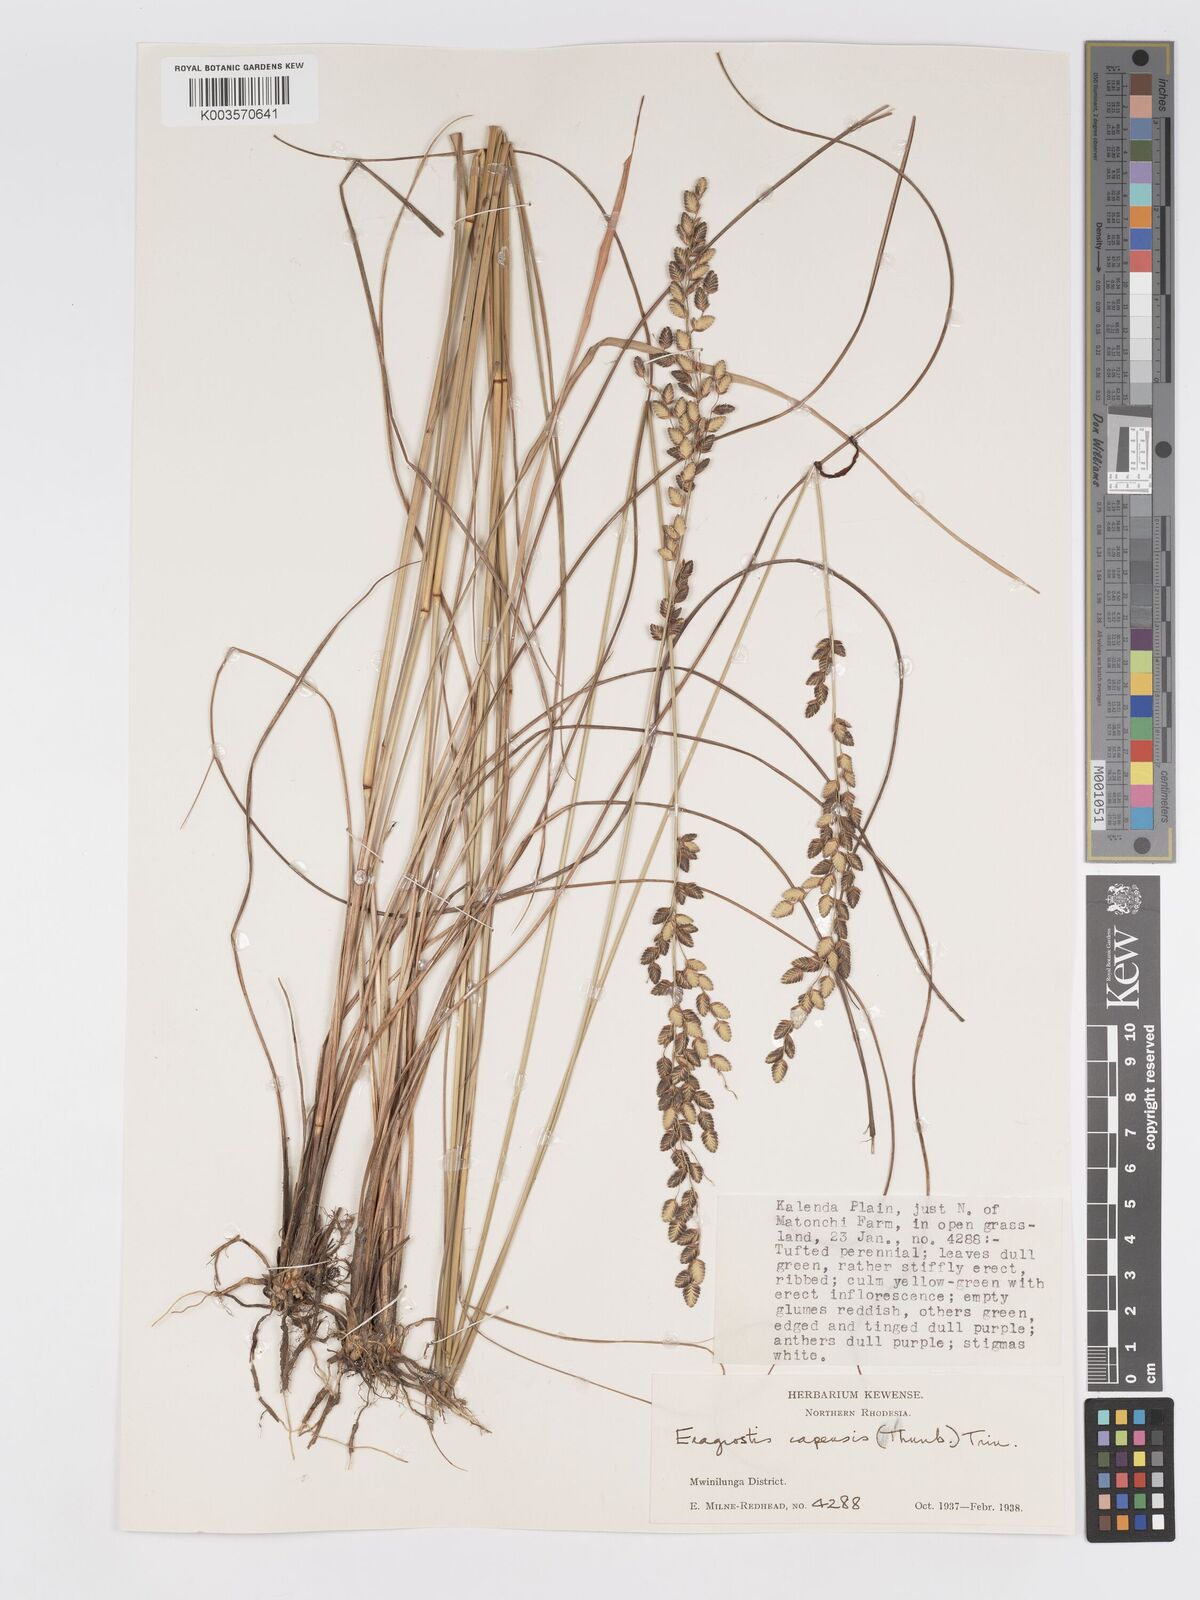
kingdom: Plantae
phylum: Tracheophyta
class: Liliopsida
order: Poales
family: Poaceae
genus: Eragrostis
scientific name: Eragrostis capensis
